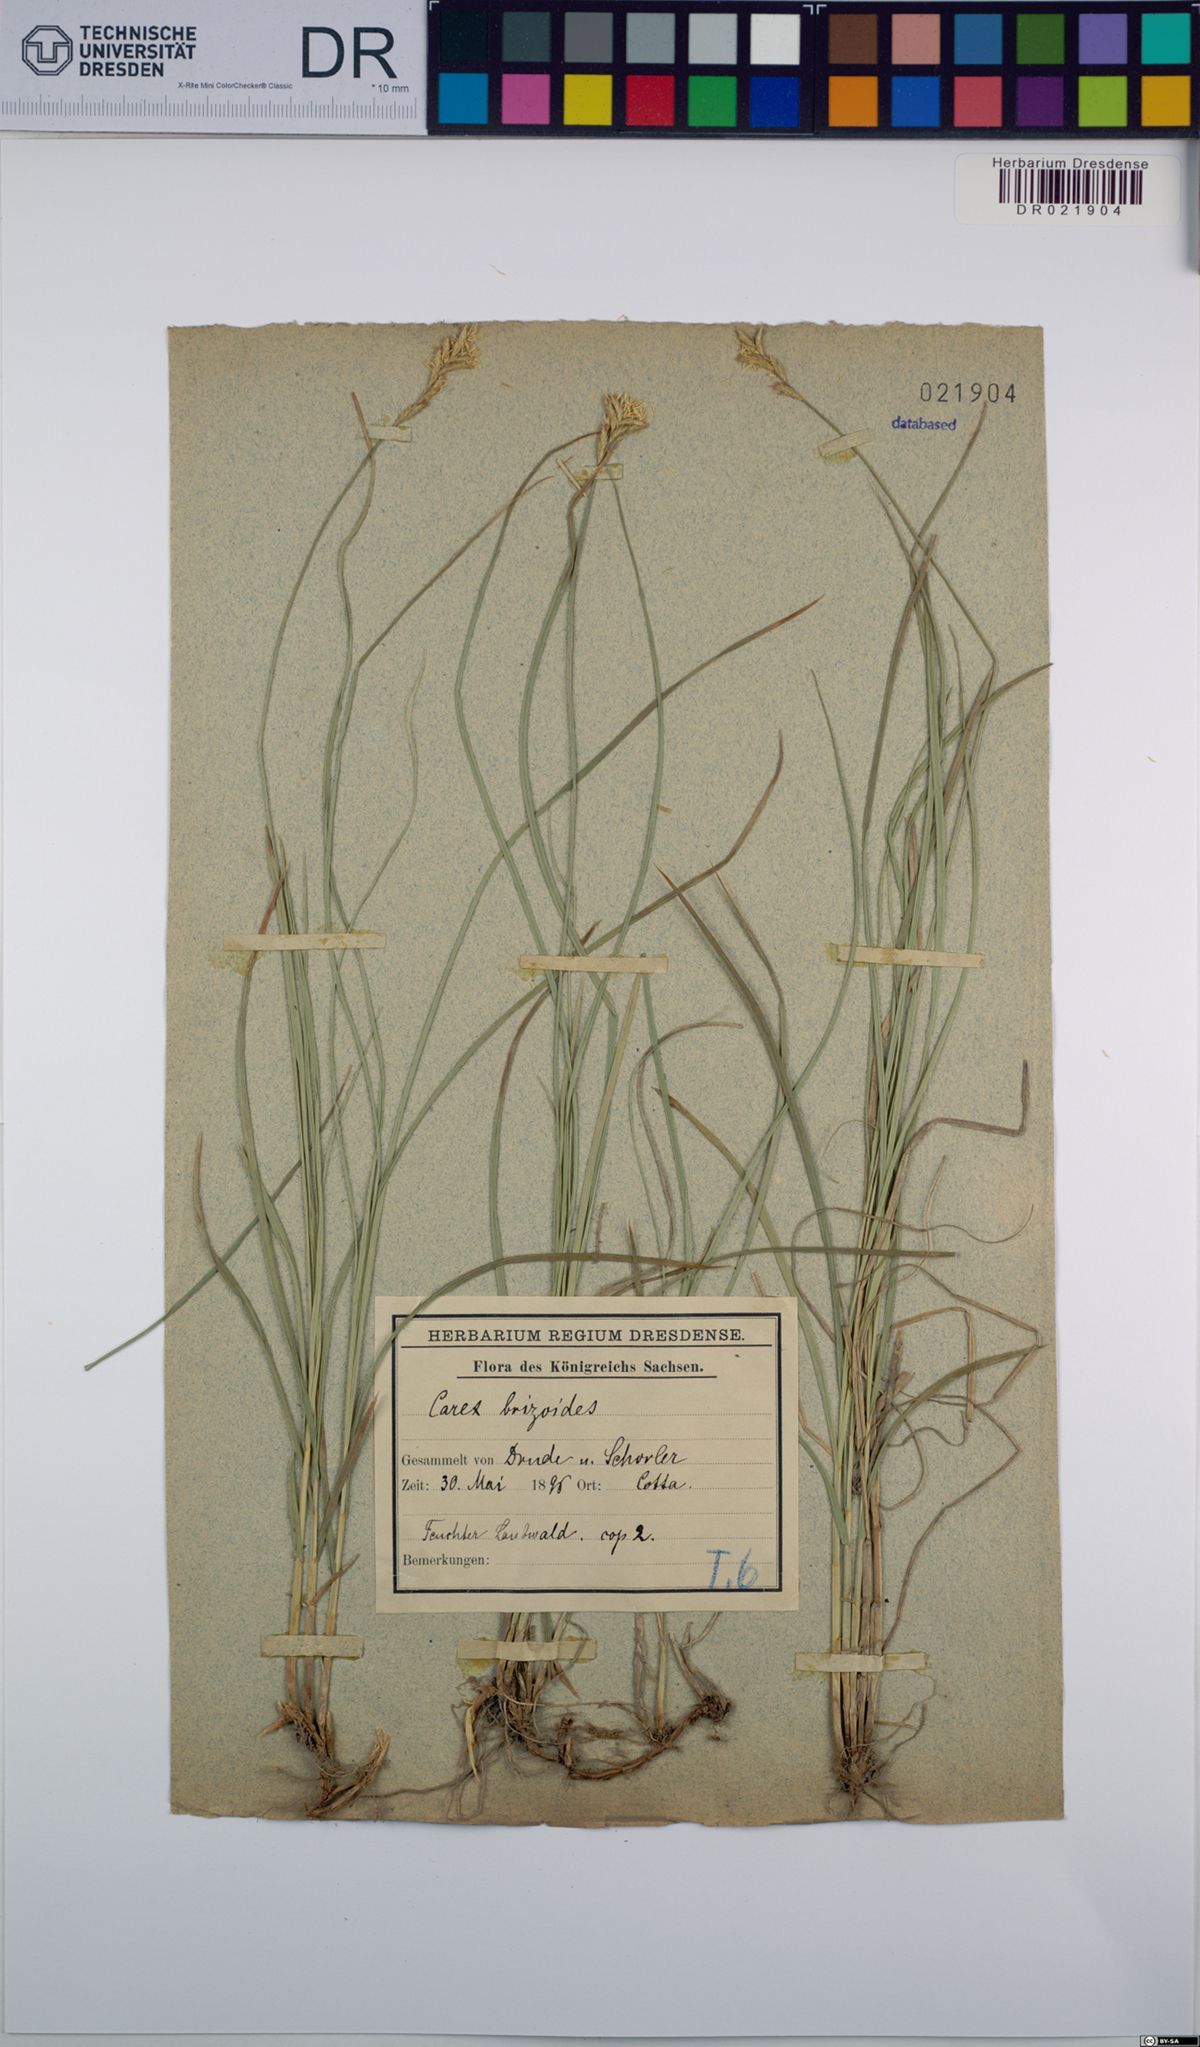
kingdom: Plantae
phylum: Tracheophyta
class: Liliopsida
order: Poales
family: Cyperaceae
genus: Carex
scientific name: Carex brizoides
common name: Quaking-grass sedge
